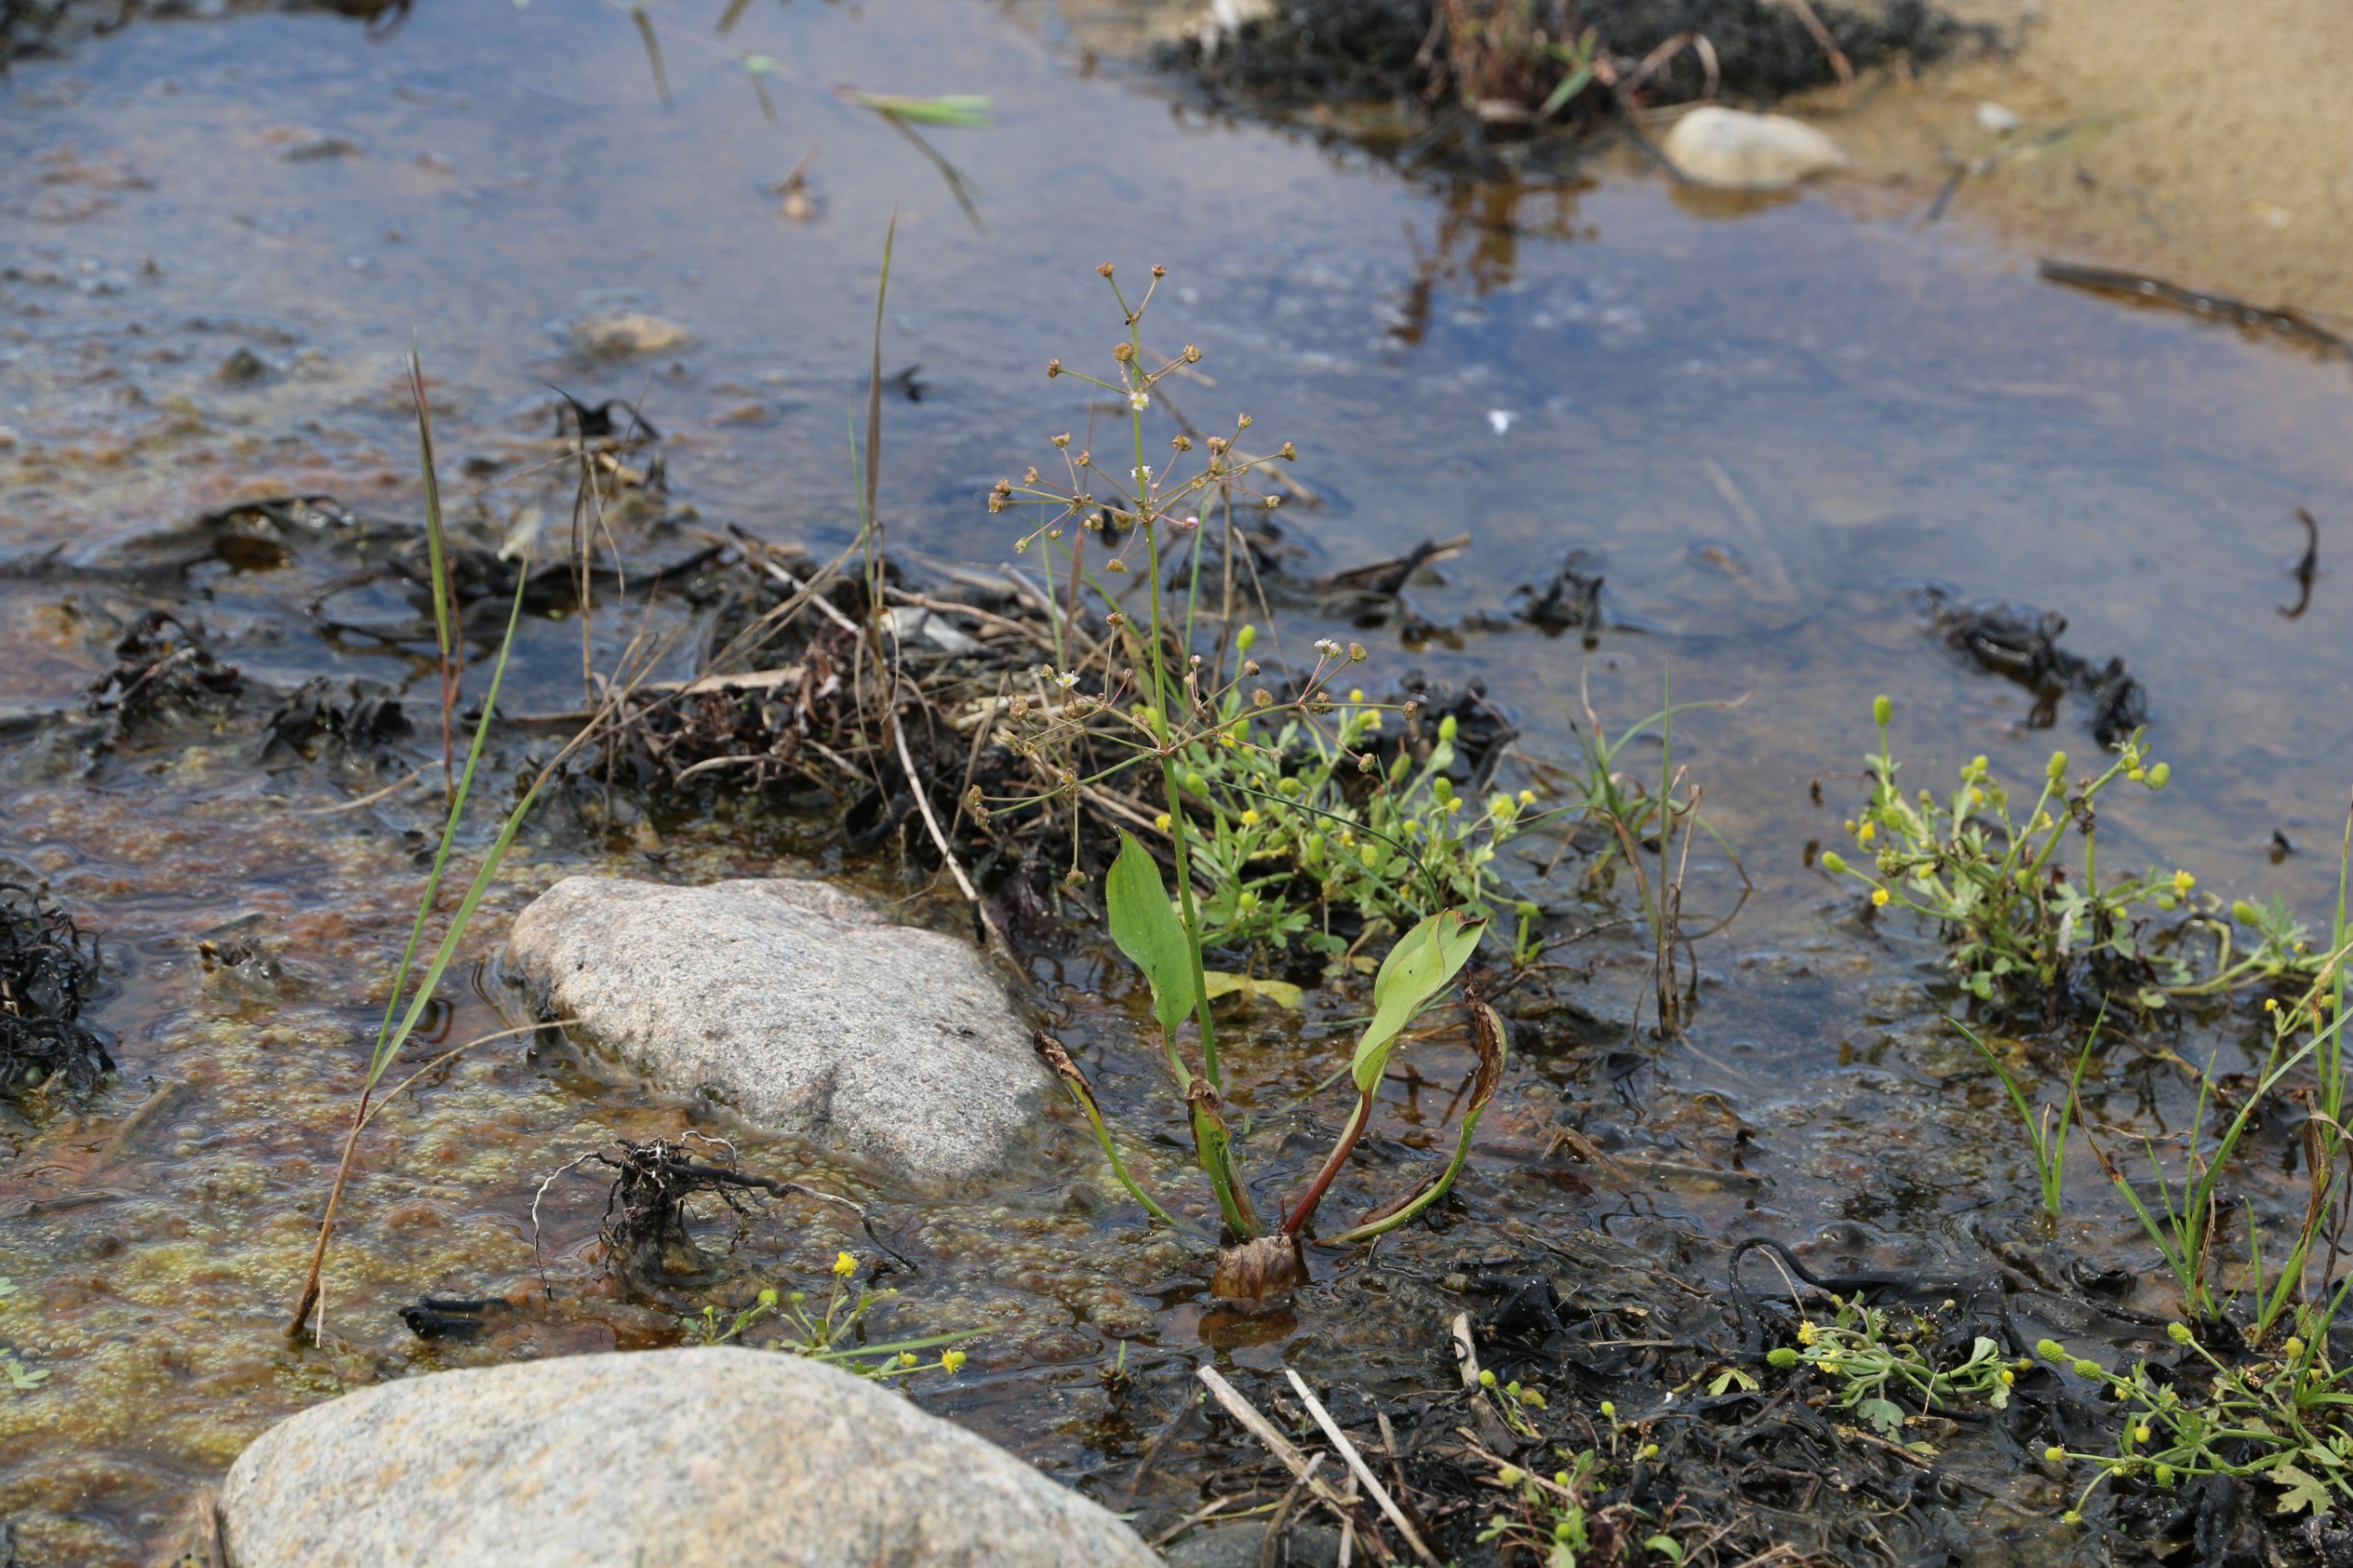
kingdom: Plantae
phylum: Tracheophyta
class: Liliopsida
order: Alismatales
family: Alismataceae
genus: Alisma
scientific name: Alisma plantago-aquatica
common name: Vejbred-skeblad
